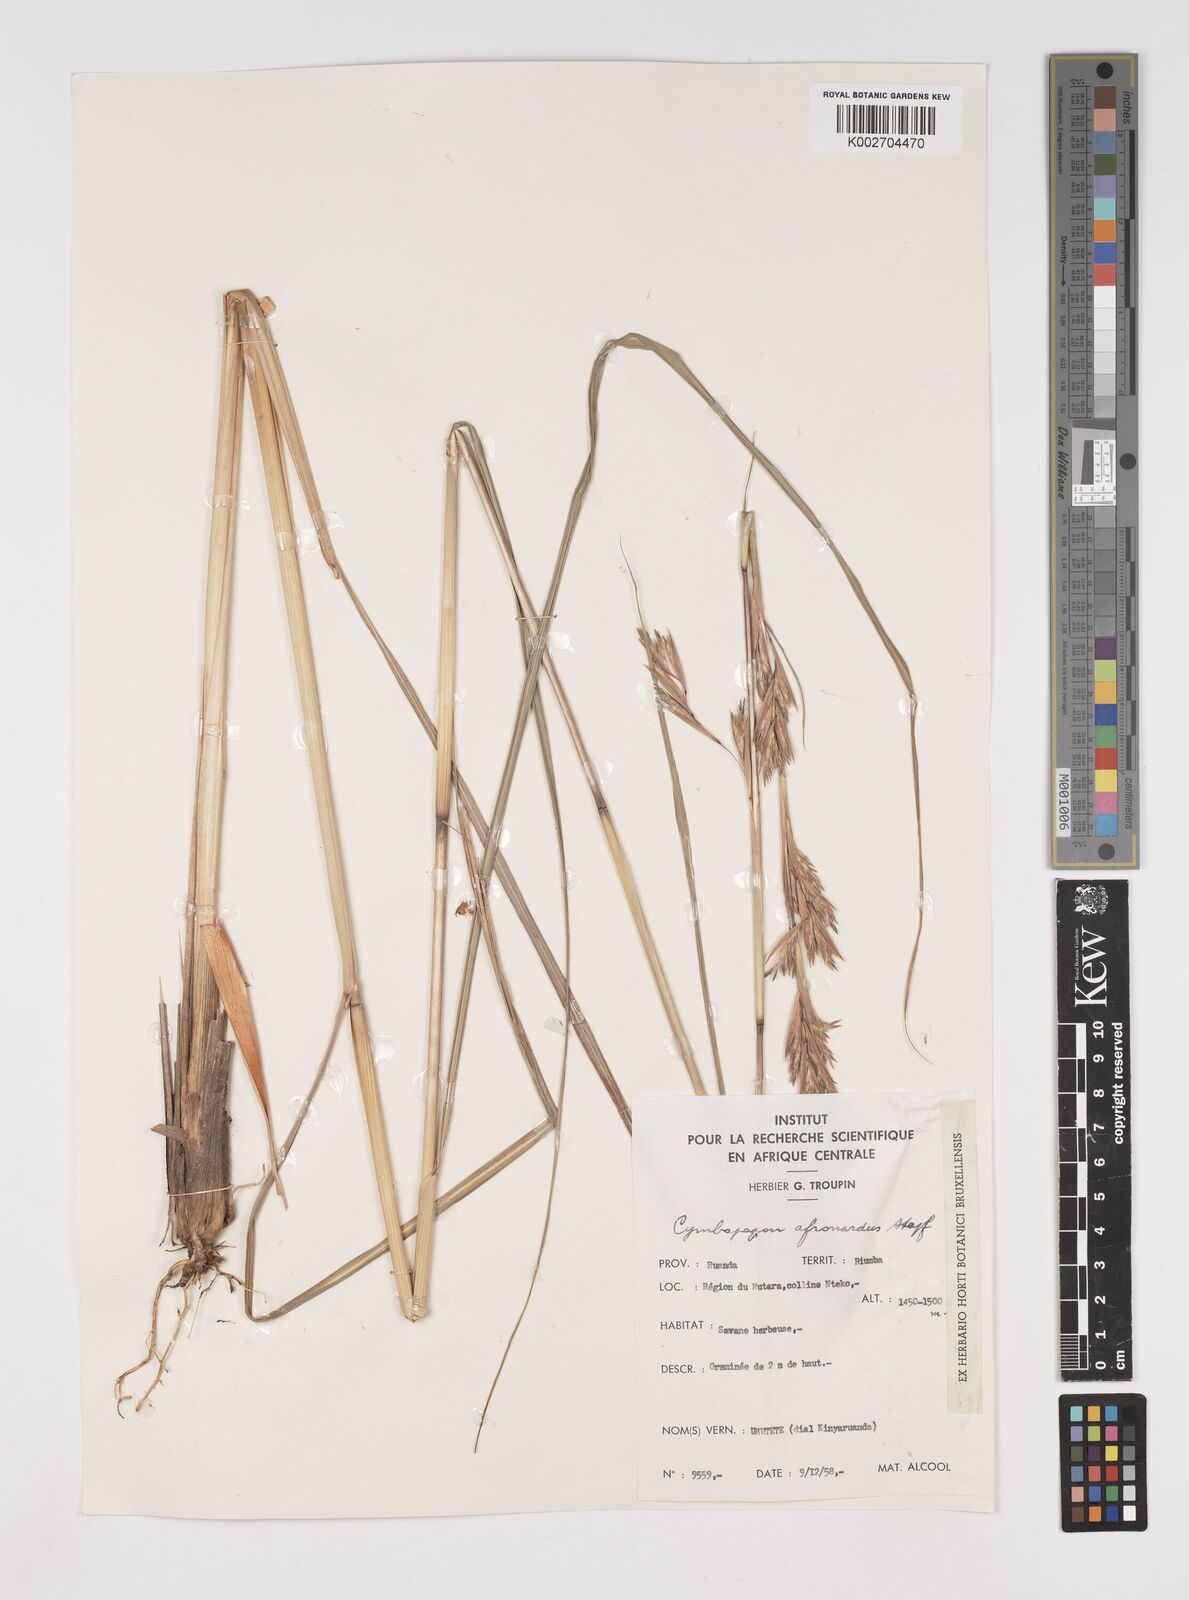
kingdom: Plantae
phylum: Tracheophyta
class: Liliopsida
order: Poales
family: Poaceae
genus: Cymbopogon
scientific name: Cymbopogon nardus
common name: Giant turpentine grass
